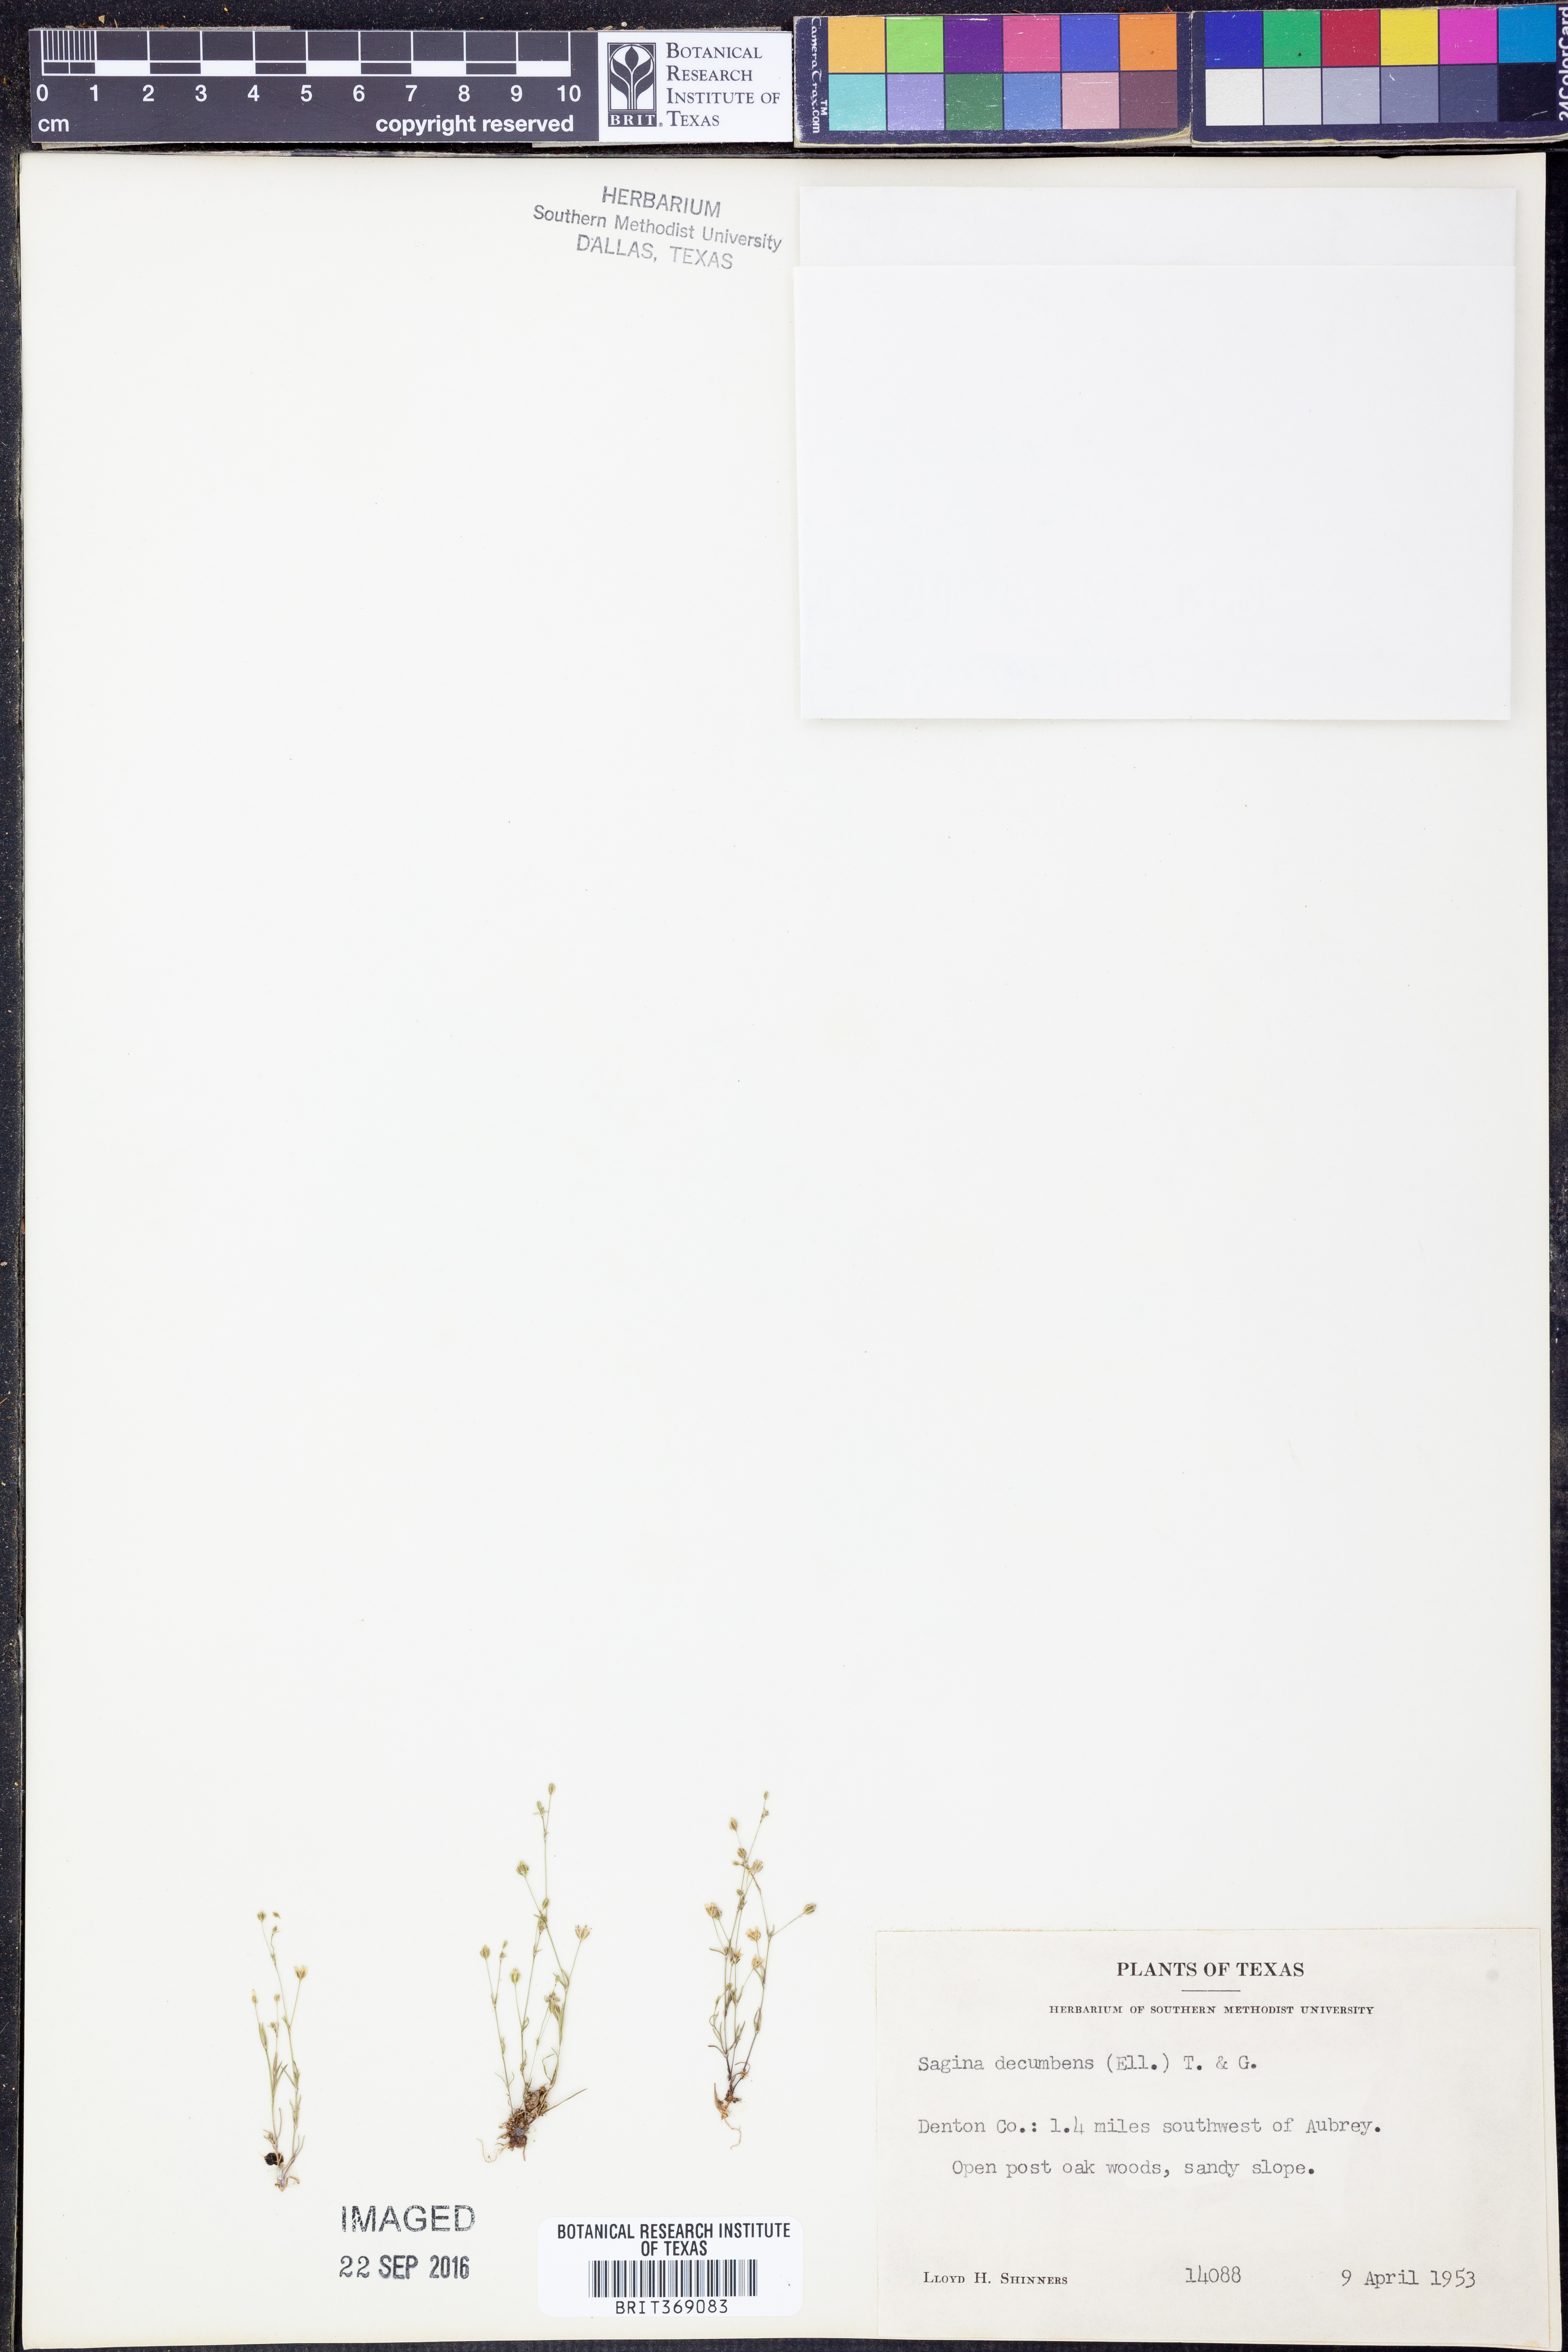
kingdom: Plantae
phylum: Tracheophyta
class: Magnoliopsida
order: Caryophyllales
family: Caryophyllaceae
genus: Sagina
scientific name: Sagina decumbens
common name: Decumbent pearlwort
